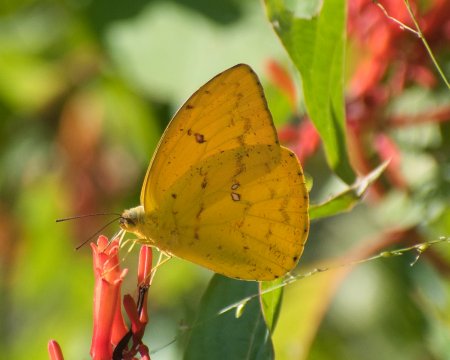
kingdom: Animalia
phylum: Arthropoda
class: Insecta
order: Lepidoptera
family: Pieridae
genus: Phoebis
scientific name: Phoebis argante
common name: Apricot Sulphur
